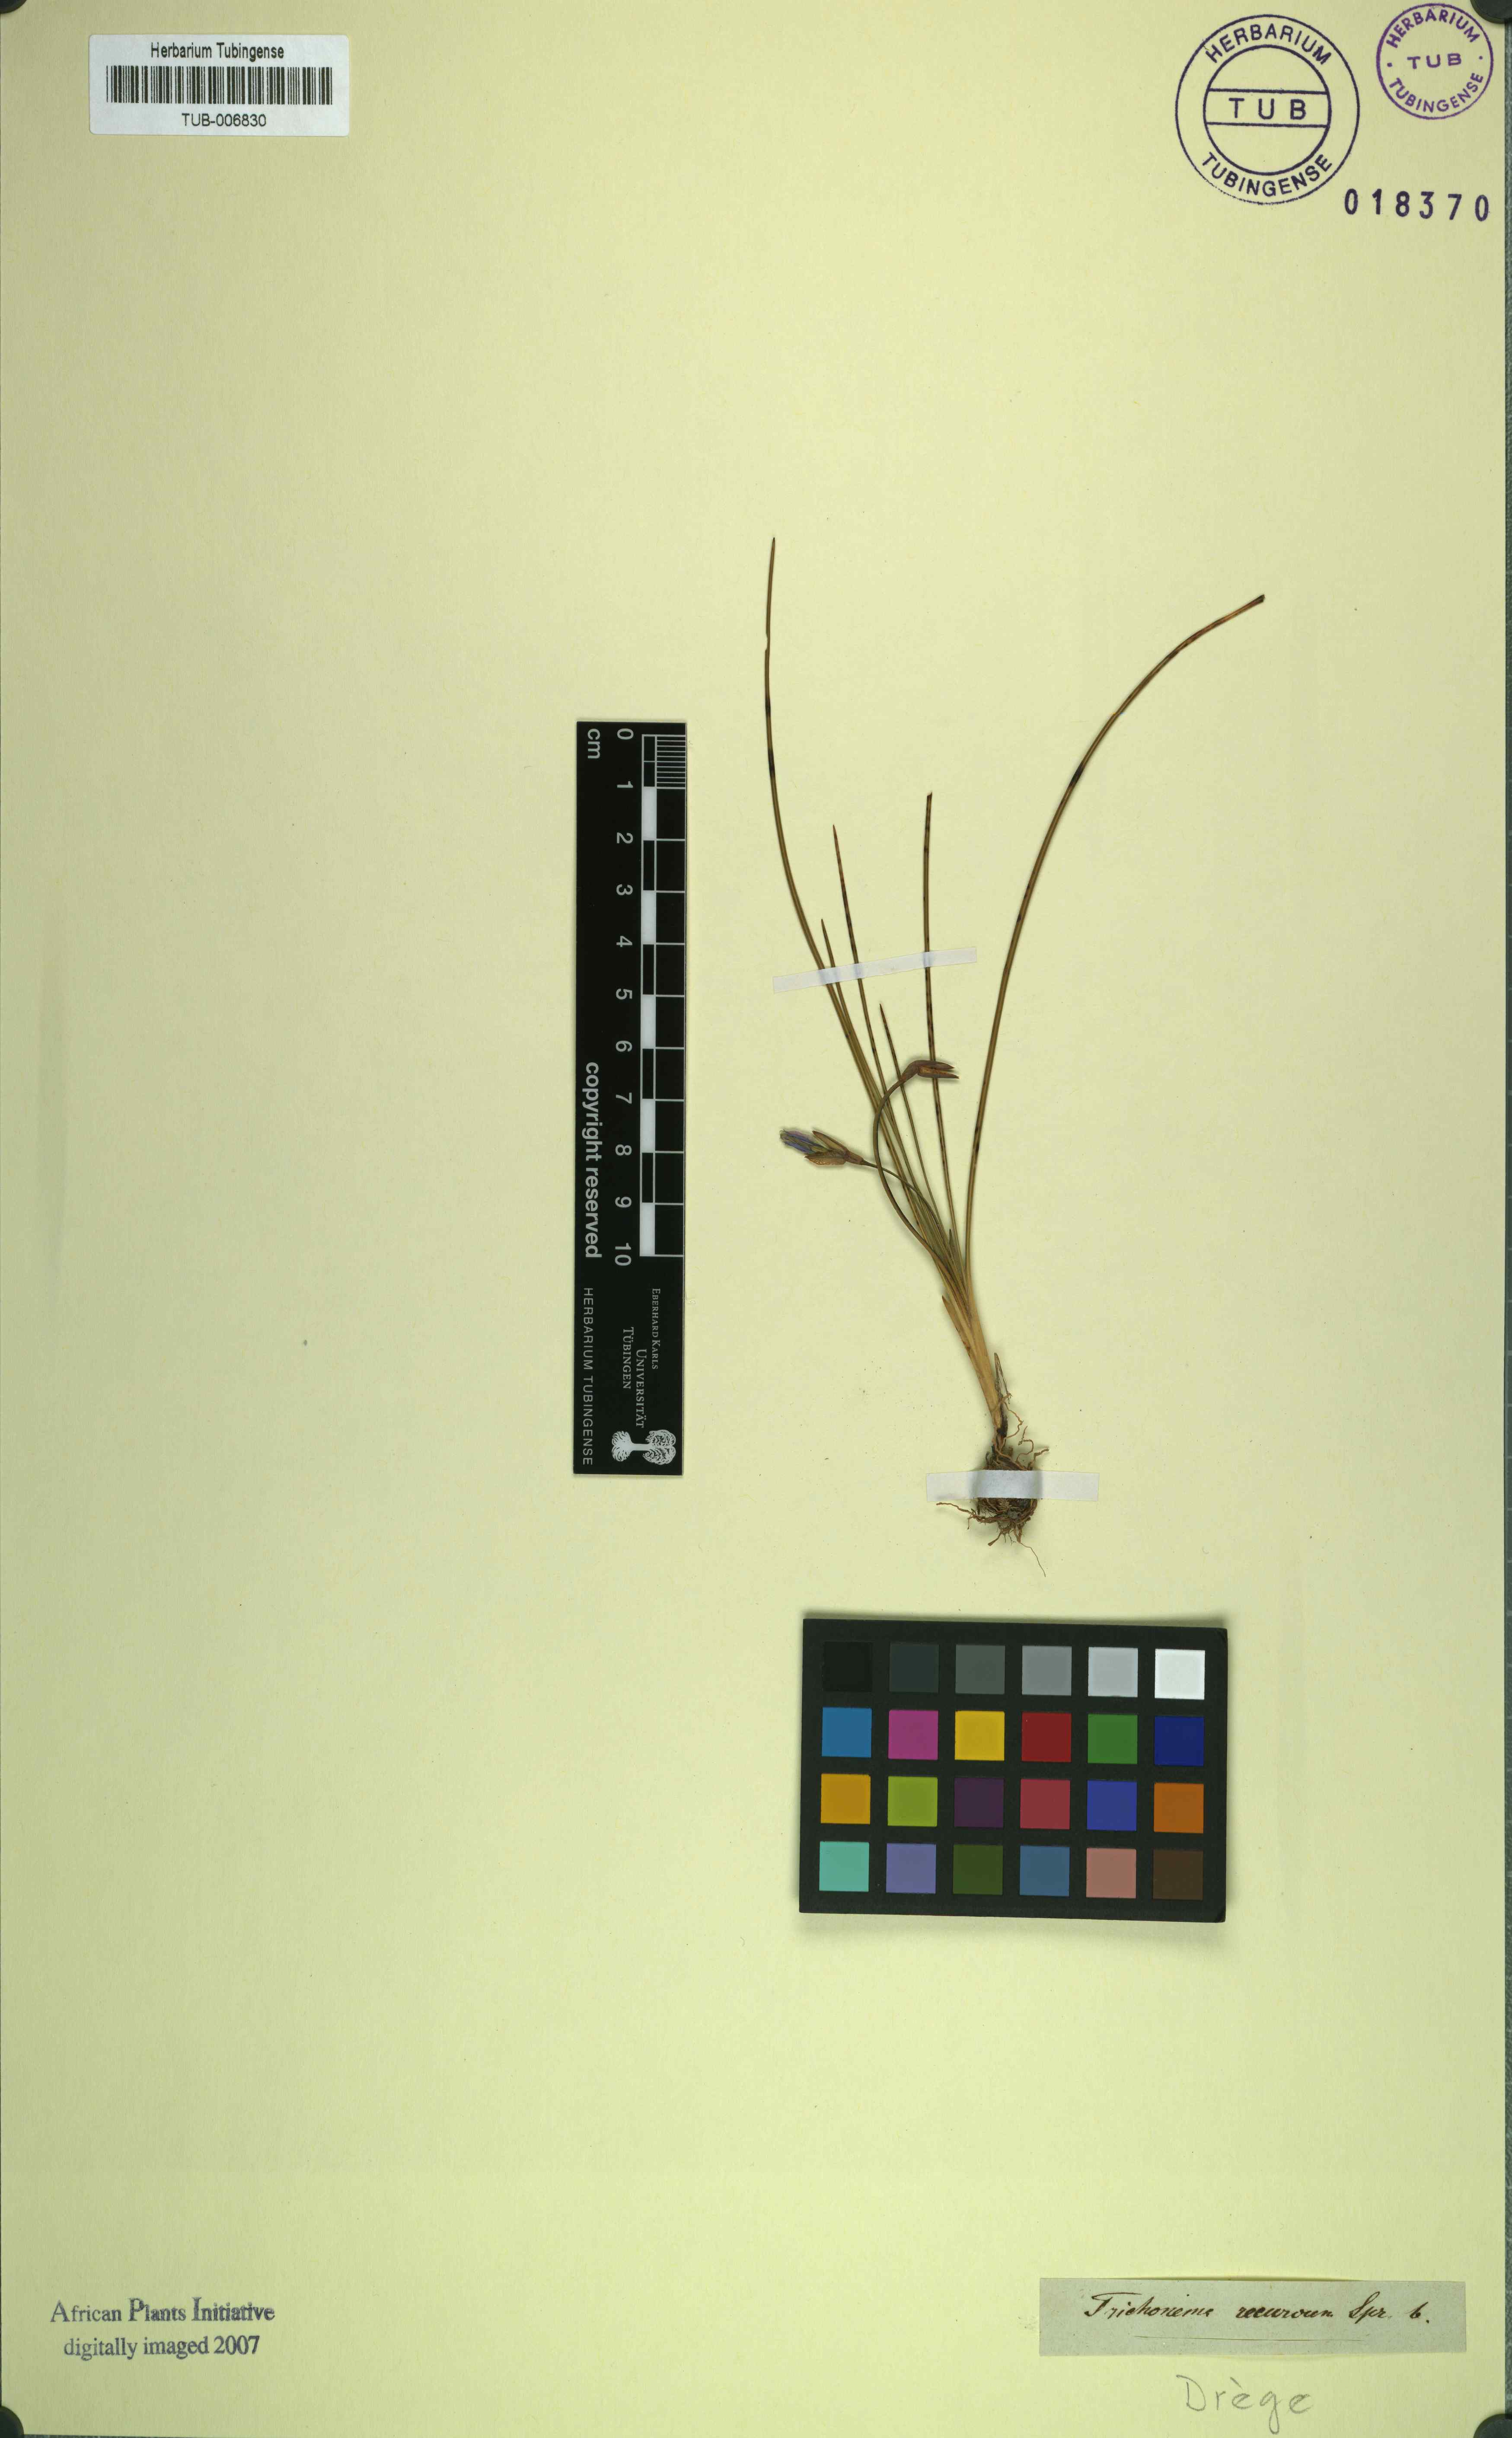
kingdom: Plantae
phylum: Tracheophyta
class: Liliopsida
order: Asparagales
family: Iridaceae
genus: Ixia
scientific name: Ixia bulbocodioides
